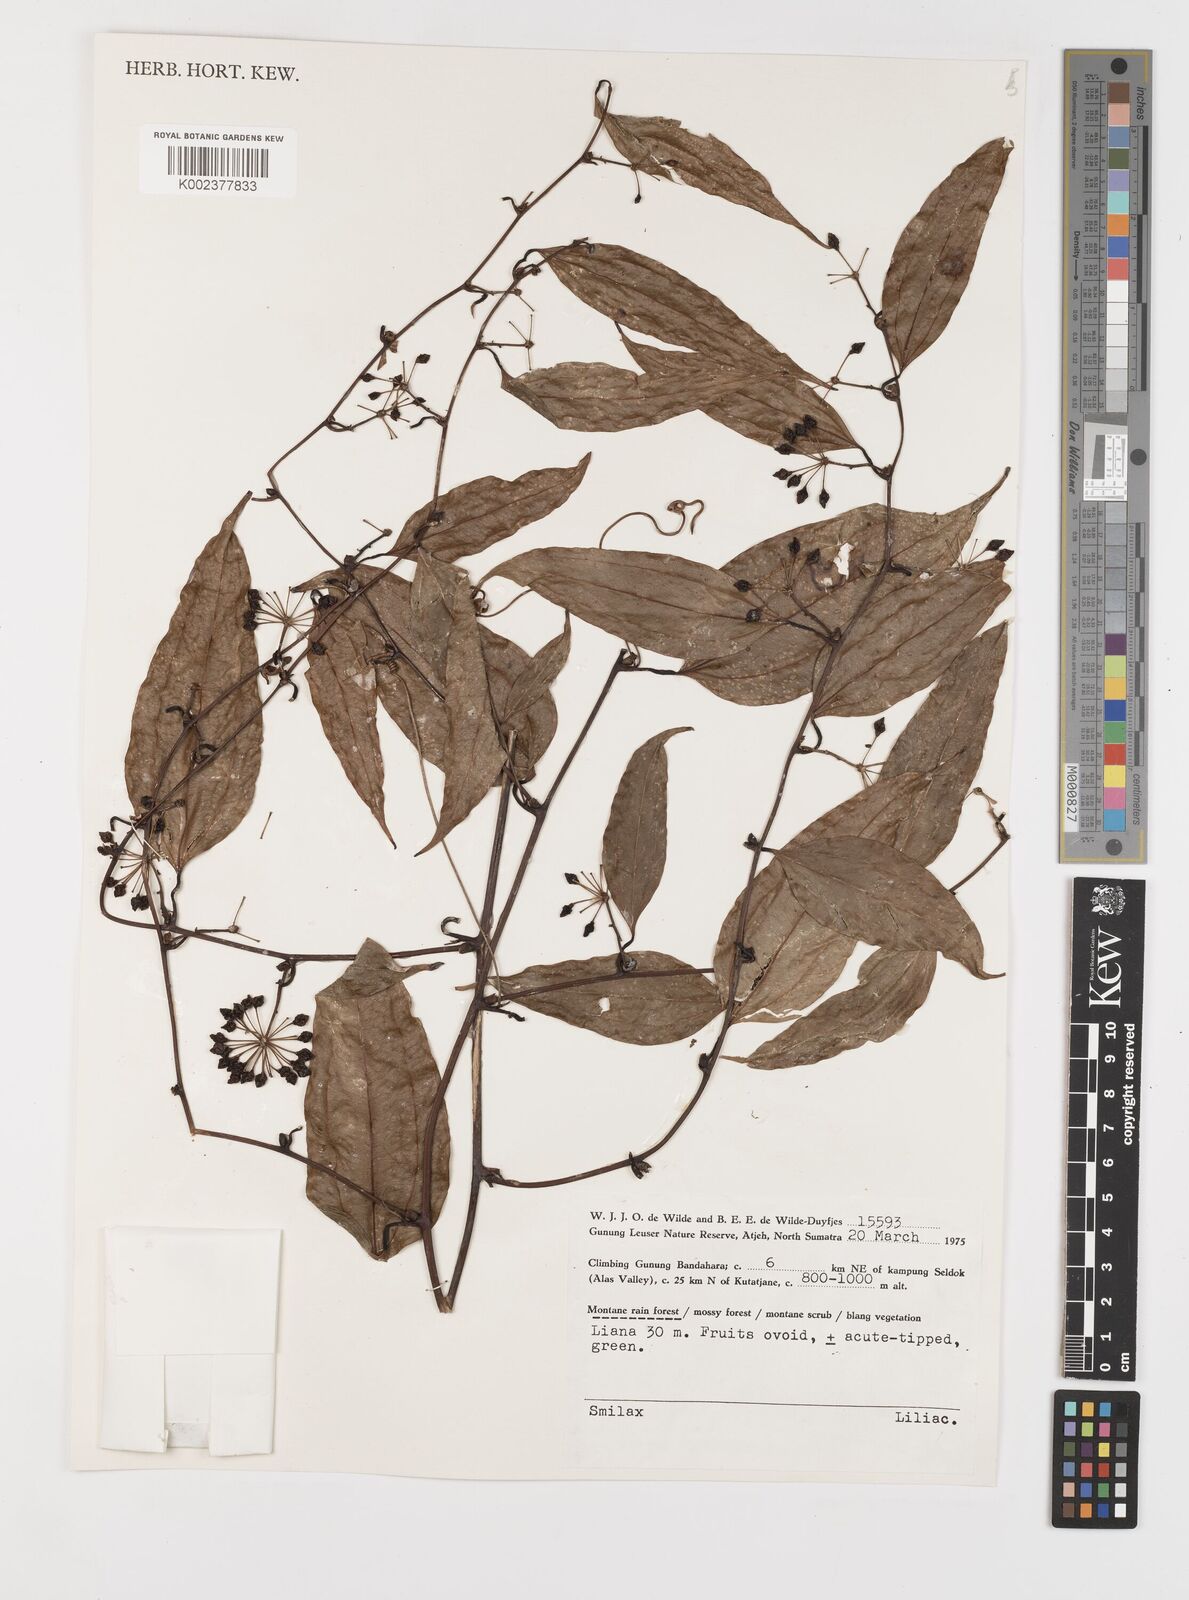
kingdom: Plantae
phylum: Tracheophyta
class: Liliopsida
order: Liliales
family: Smilacaceae
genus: Smilax
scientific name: Smilax
